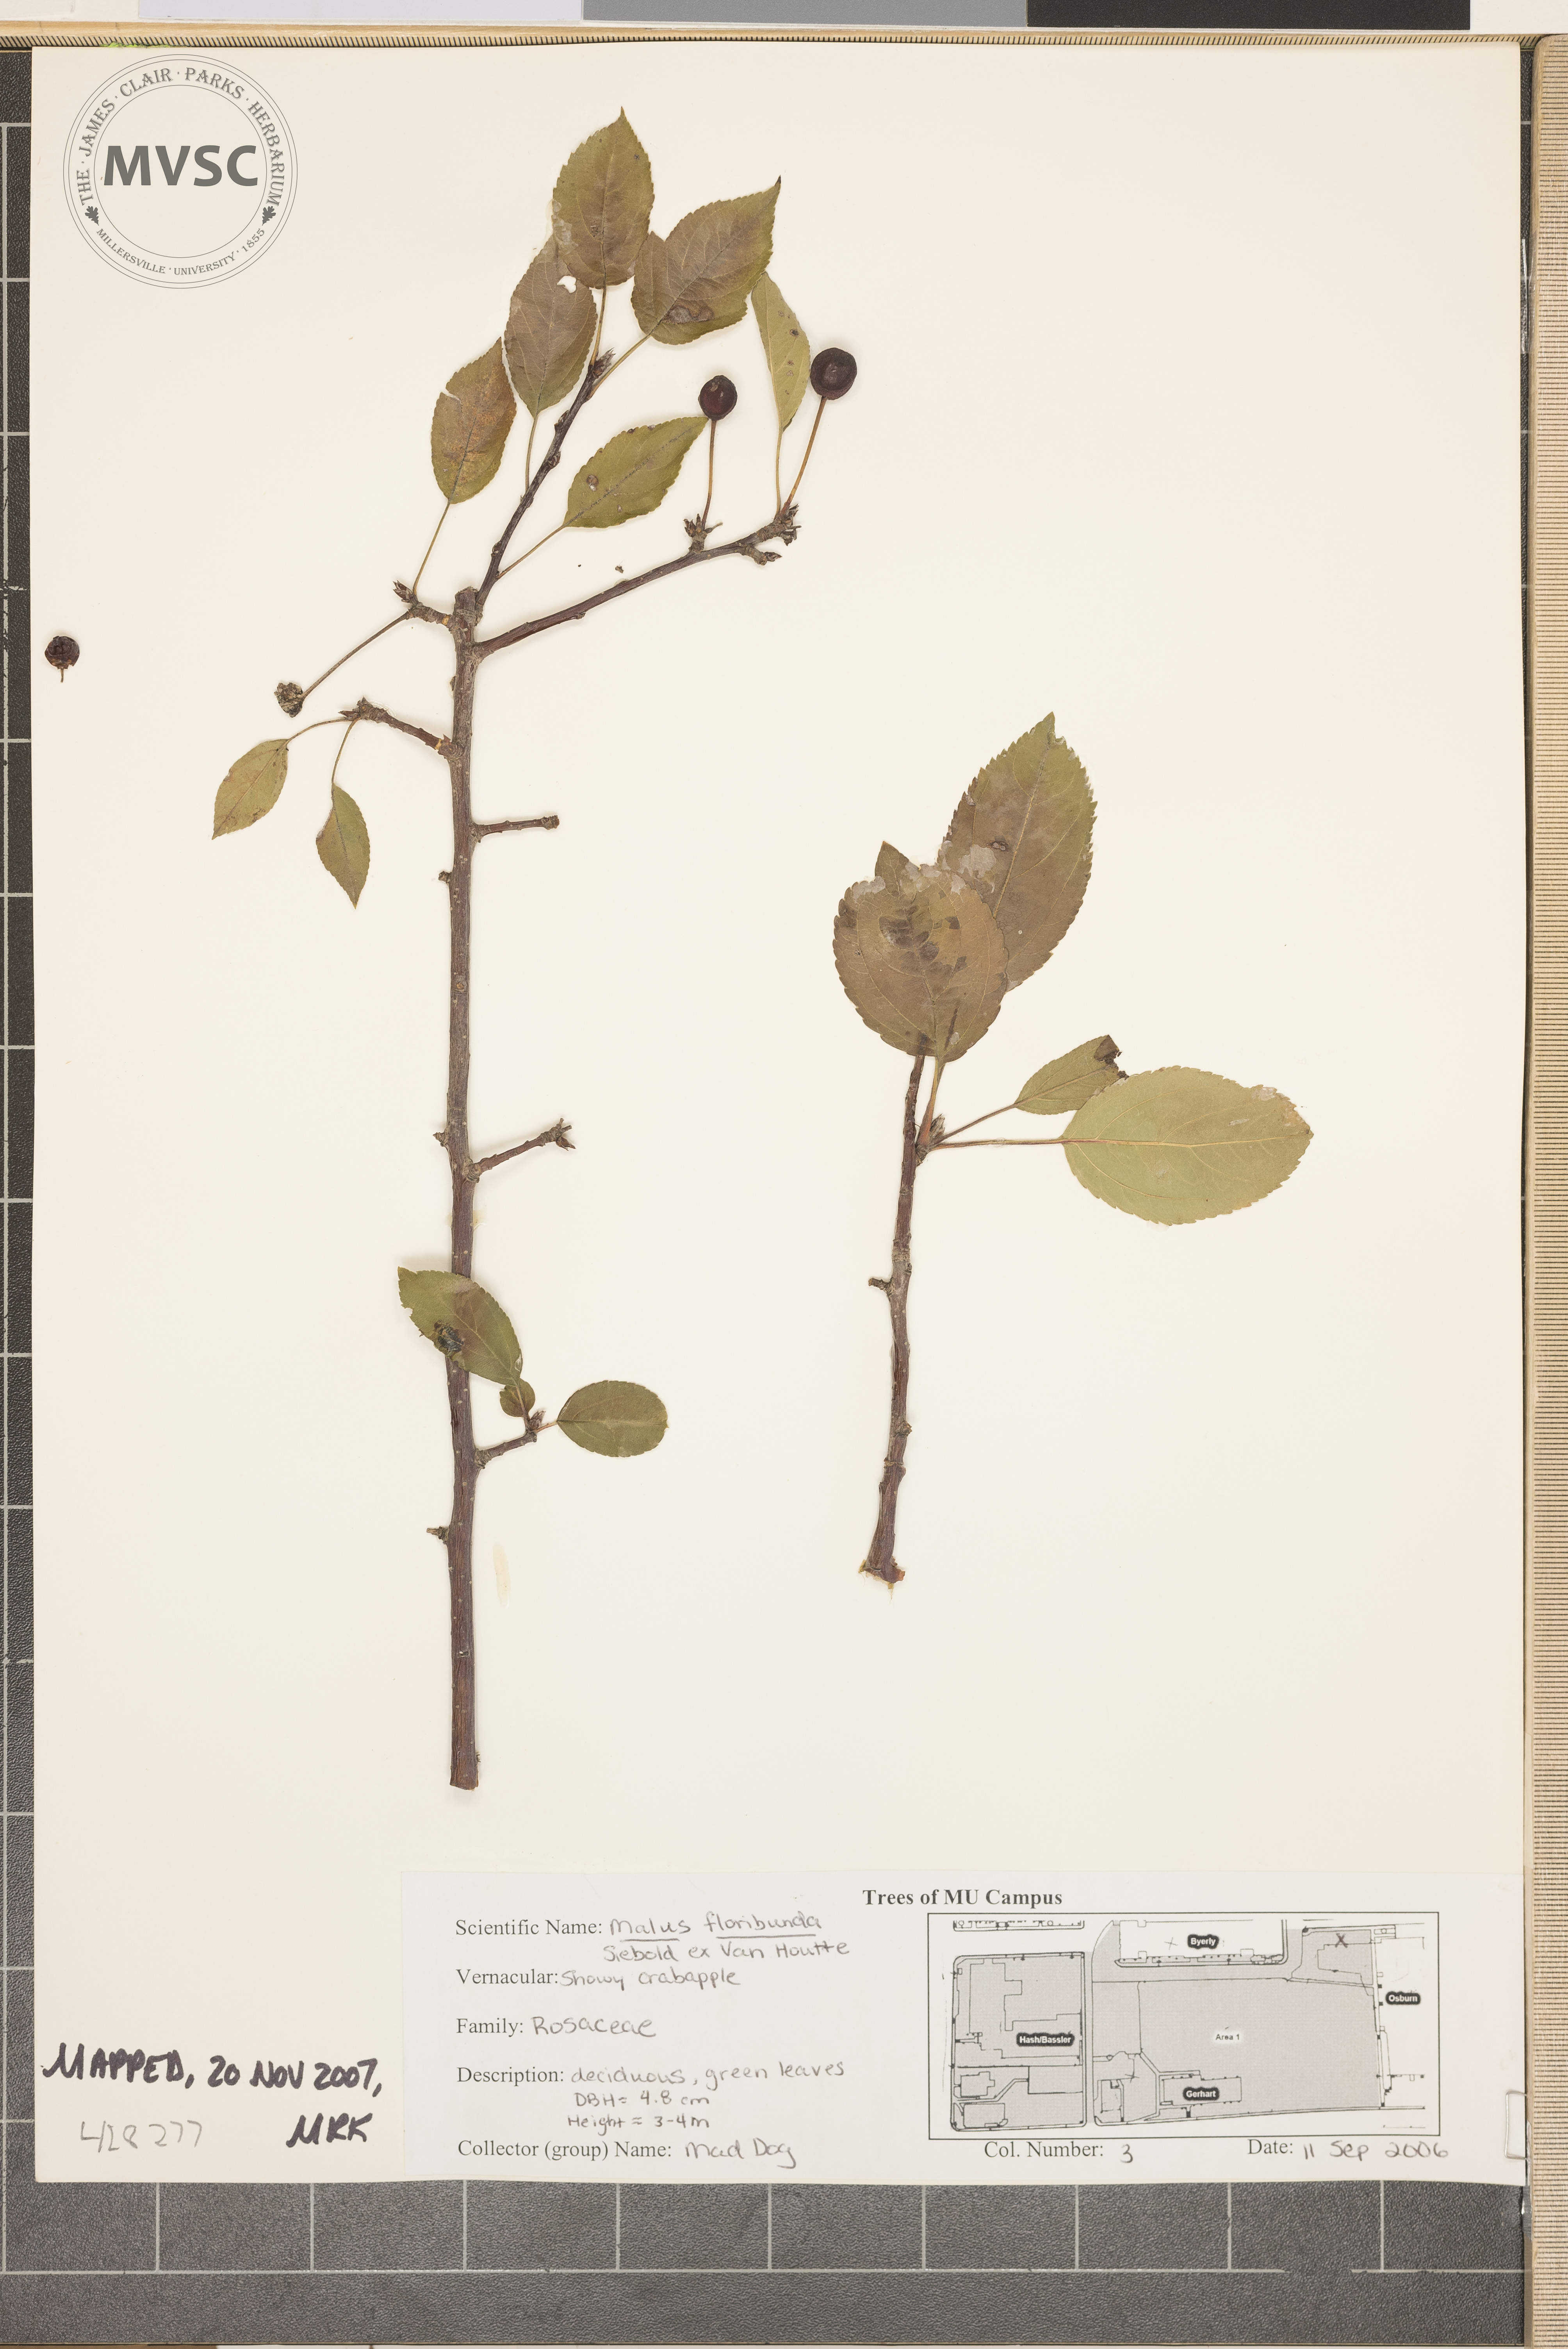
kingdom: Plantae
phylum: Tracheophyta
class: Magnoliopsida
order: Rosales
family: Rosaceae
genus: Malus
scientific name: Malus floribunda
